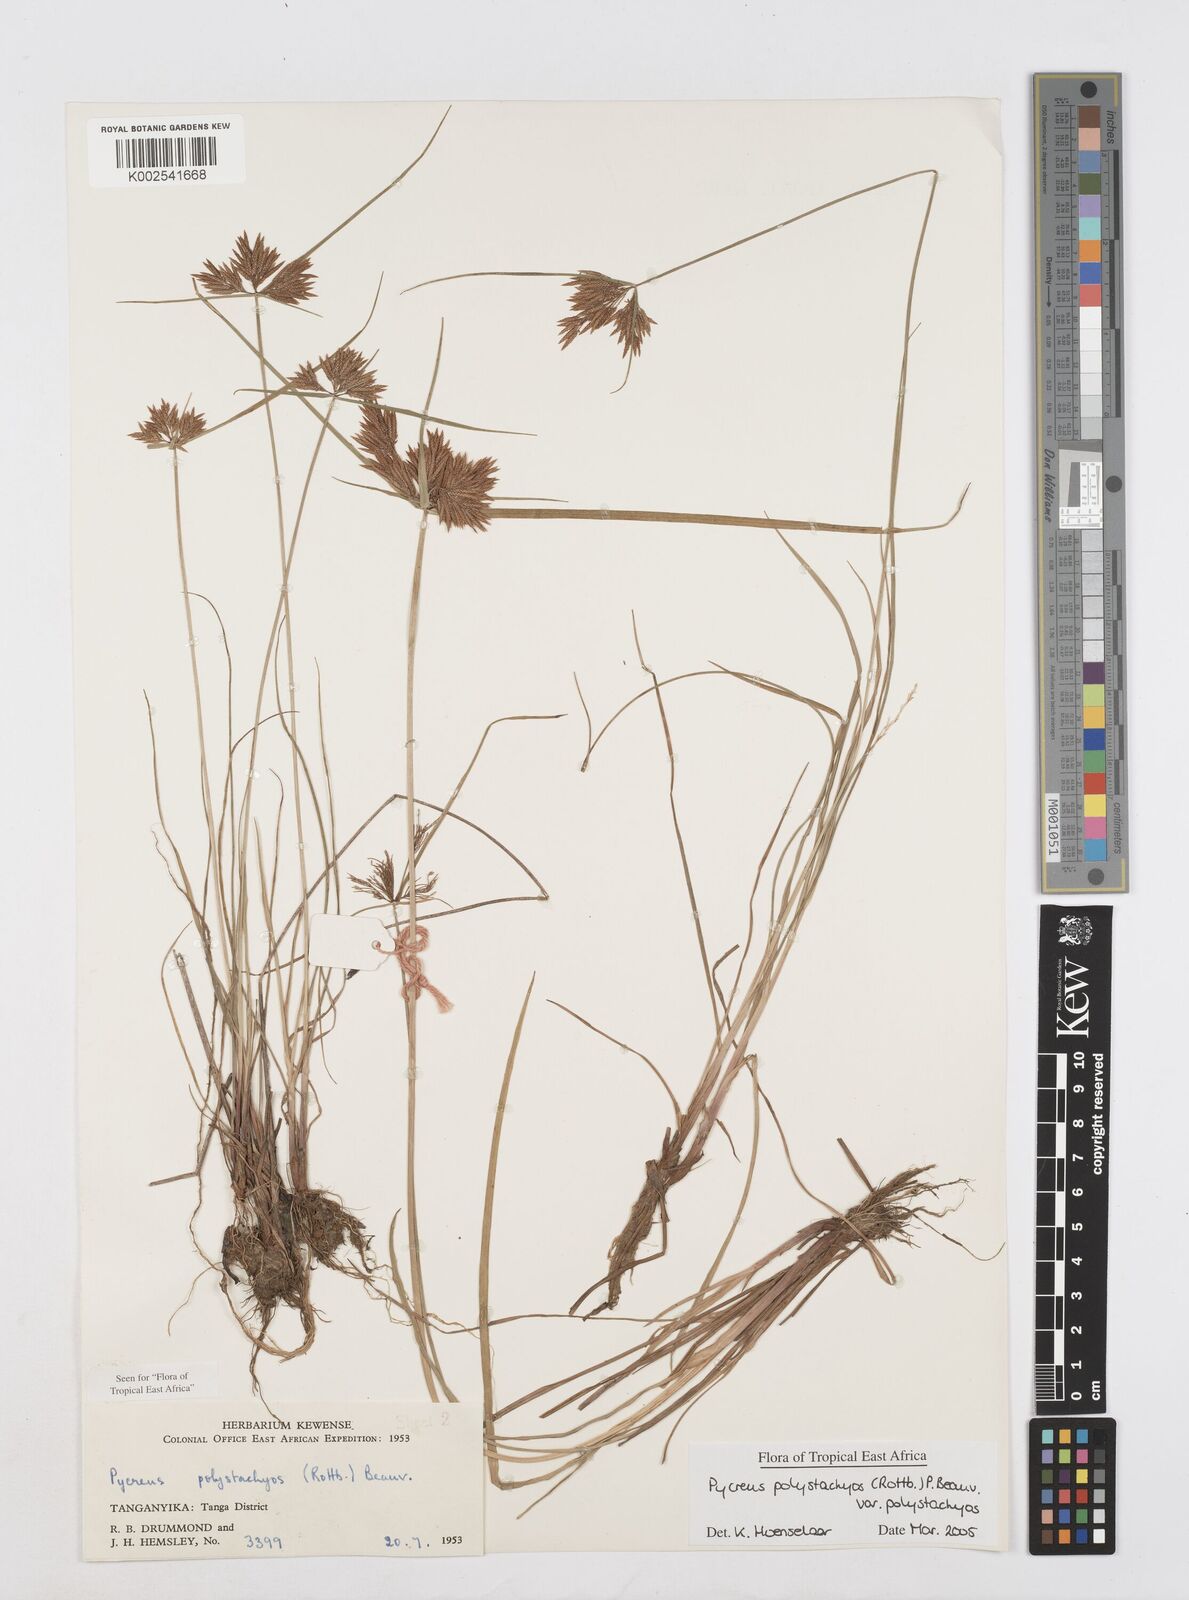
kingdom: Plantae
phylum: Tracheophyta
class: Liliopsida
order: Poales
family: Cyperaceae
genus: Cyperus
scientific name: Cyperus polystachyos
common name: Bunchy flat sedge
